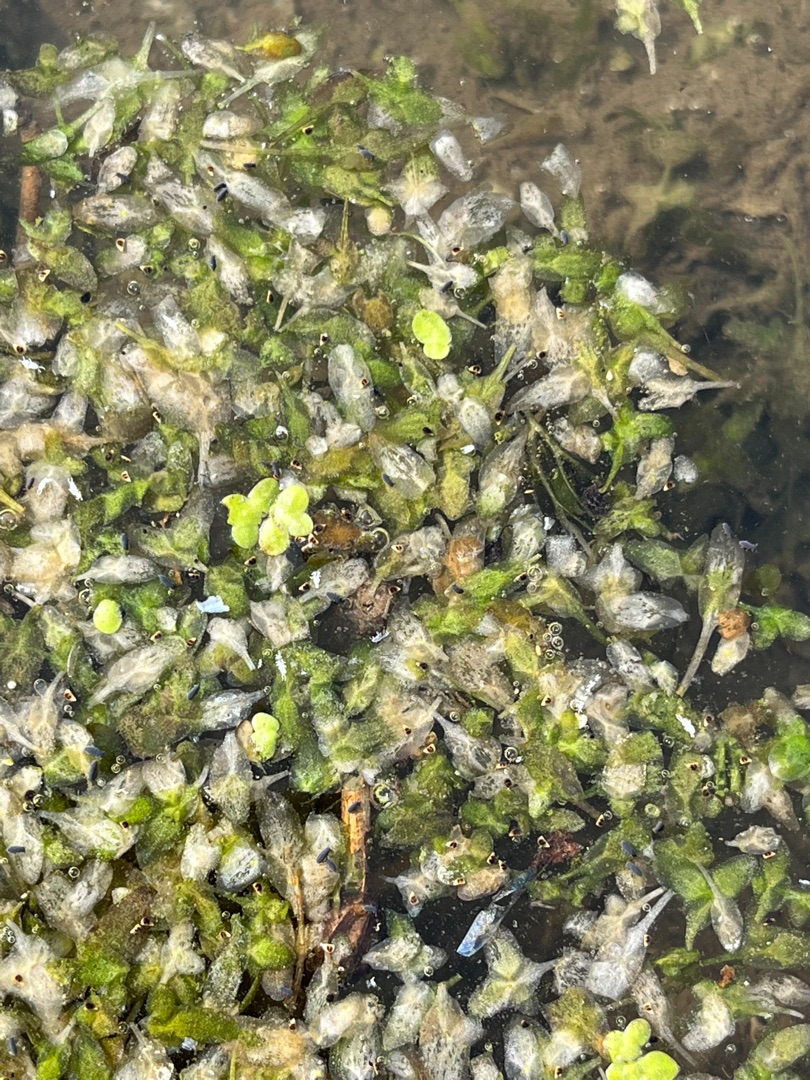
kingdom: Plantae
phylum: Tracheophyta
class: Liliopsida
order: Alismatales
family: Araceae
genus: Lemna
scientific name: Lemna minor
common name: Liden andemad
